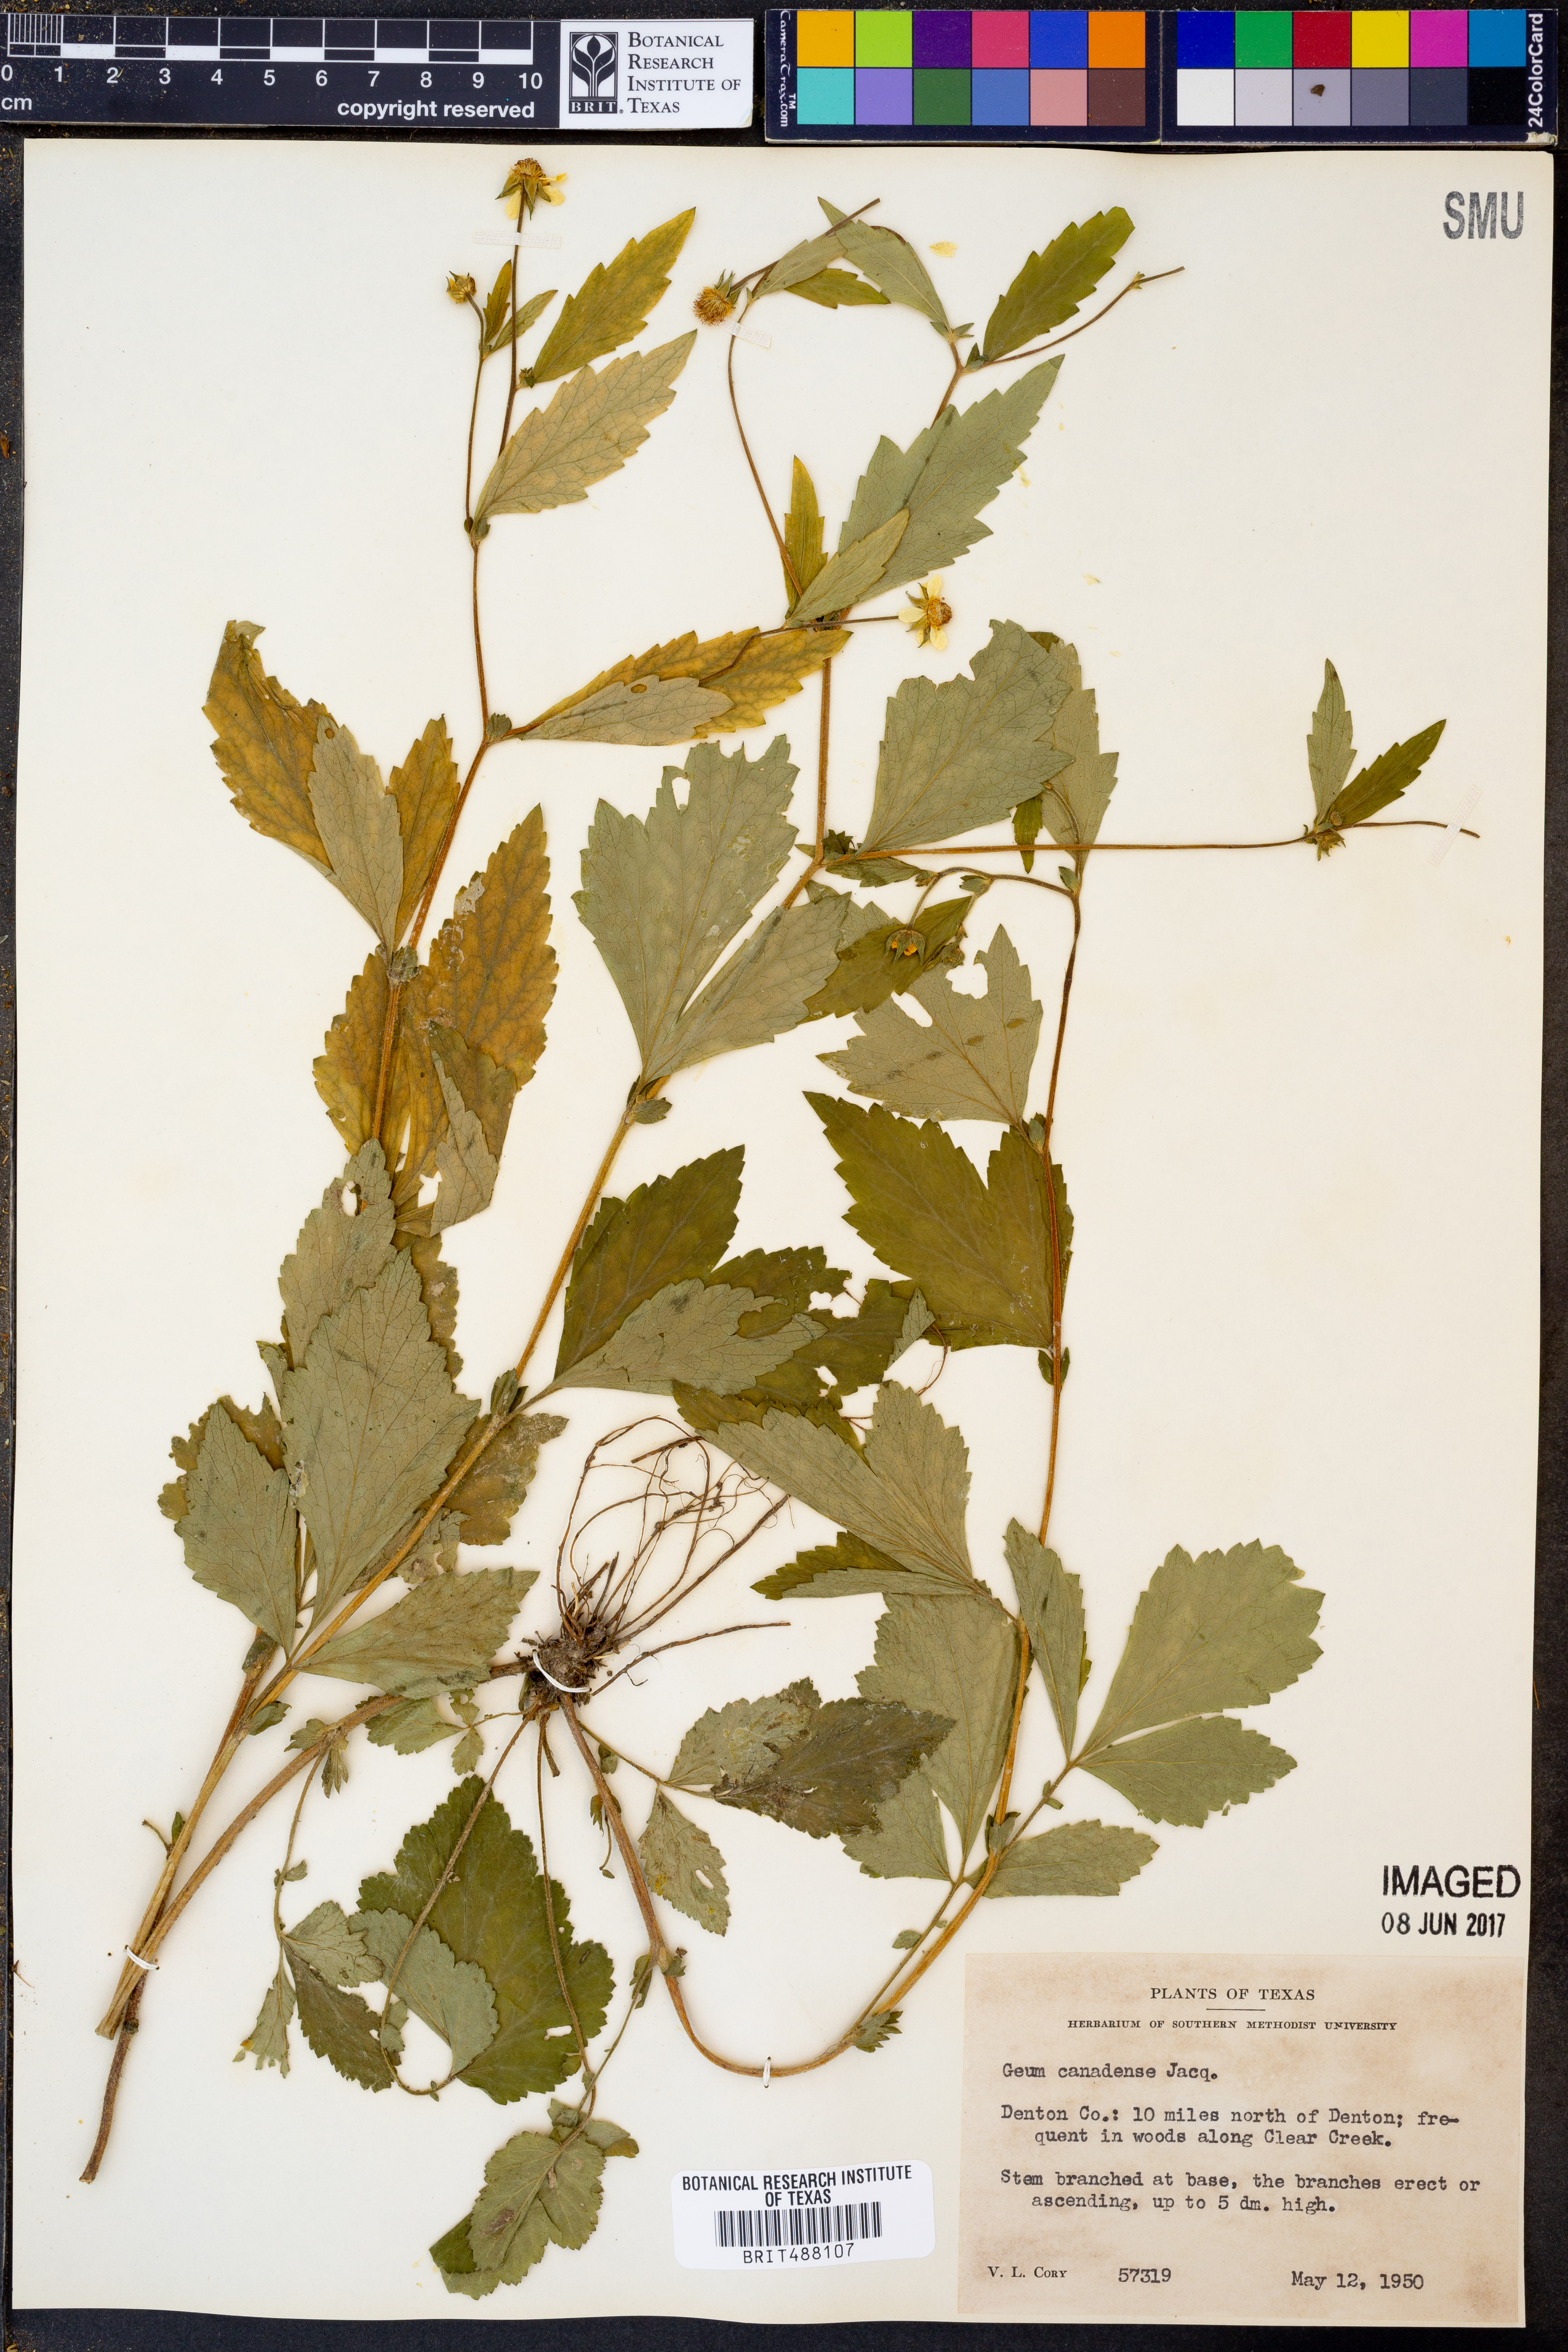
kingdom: Plantae
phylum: Tracheophyta
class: Magnoliopsida
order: Rosales
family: Rosaceae
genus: Geum
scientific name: Geum canadense
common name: White avens
